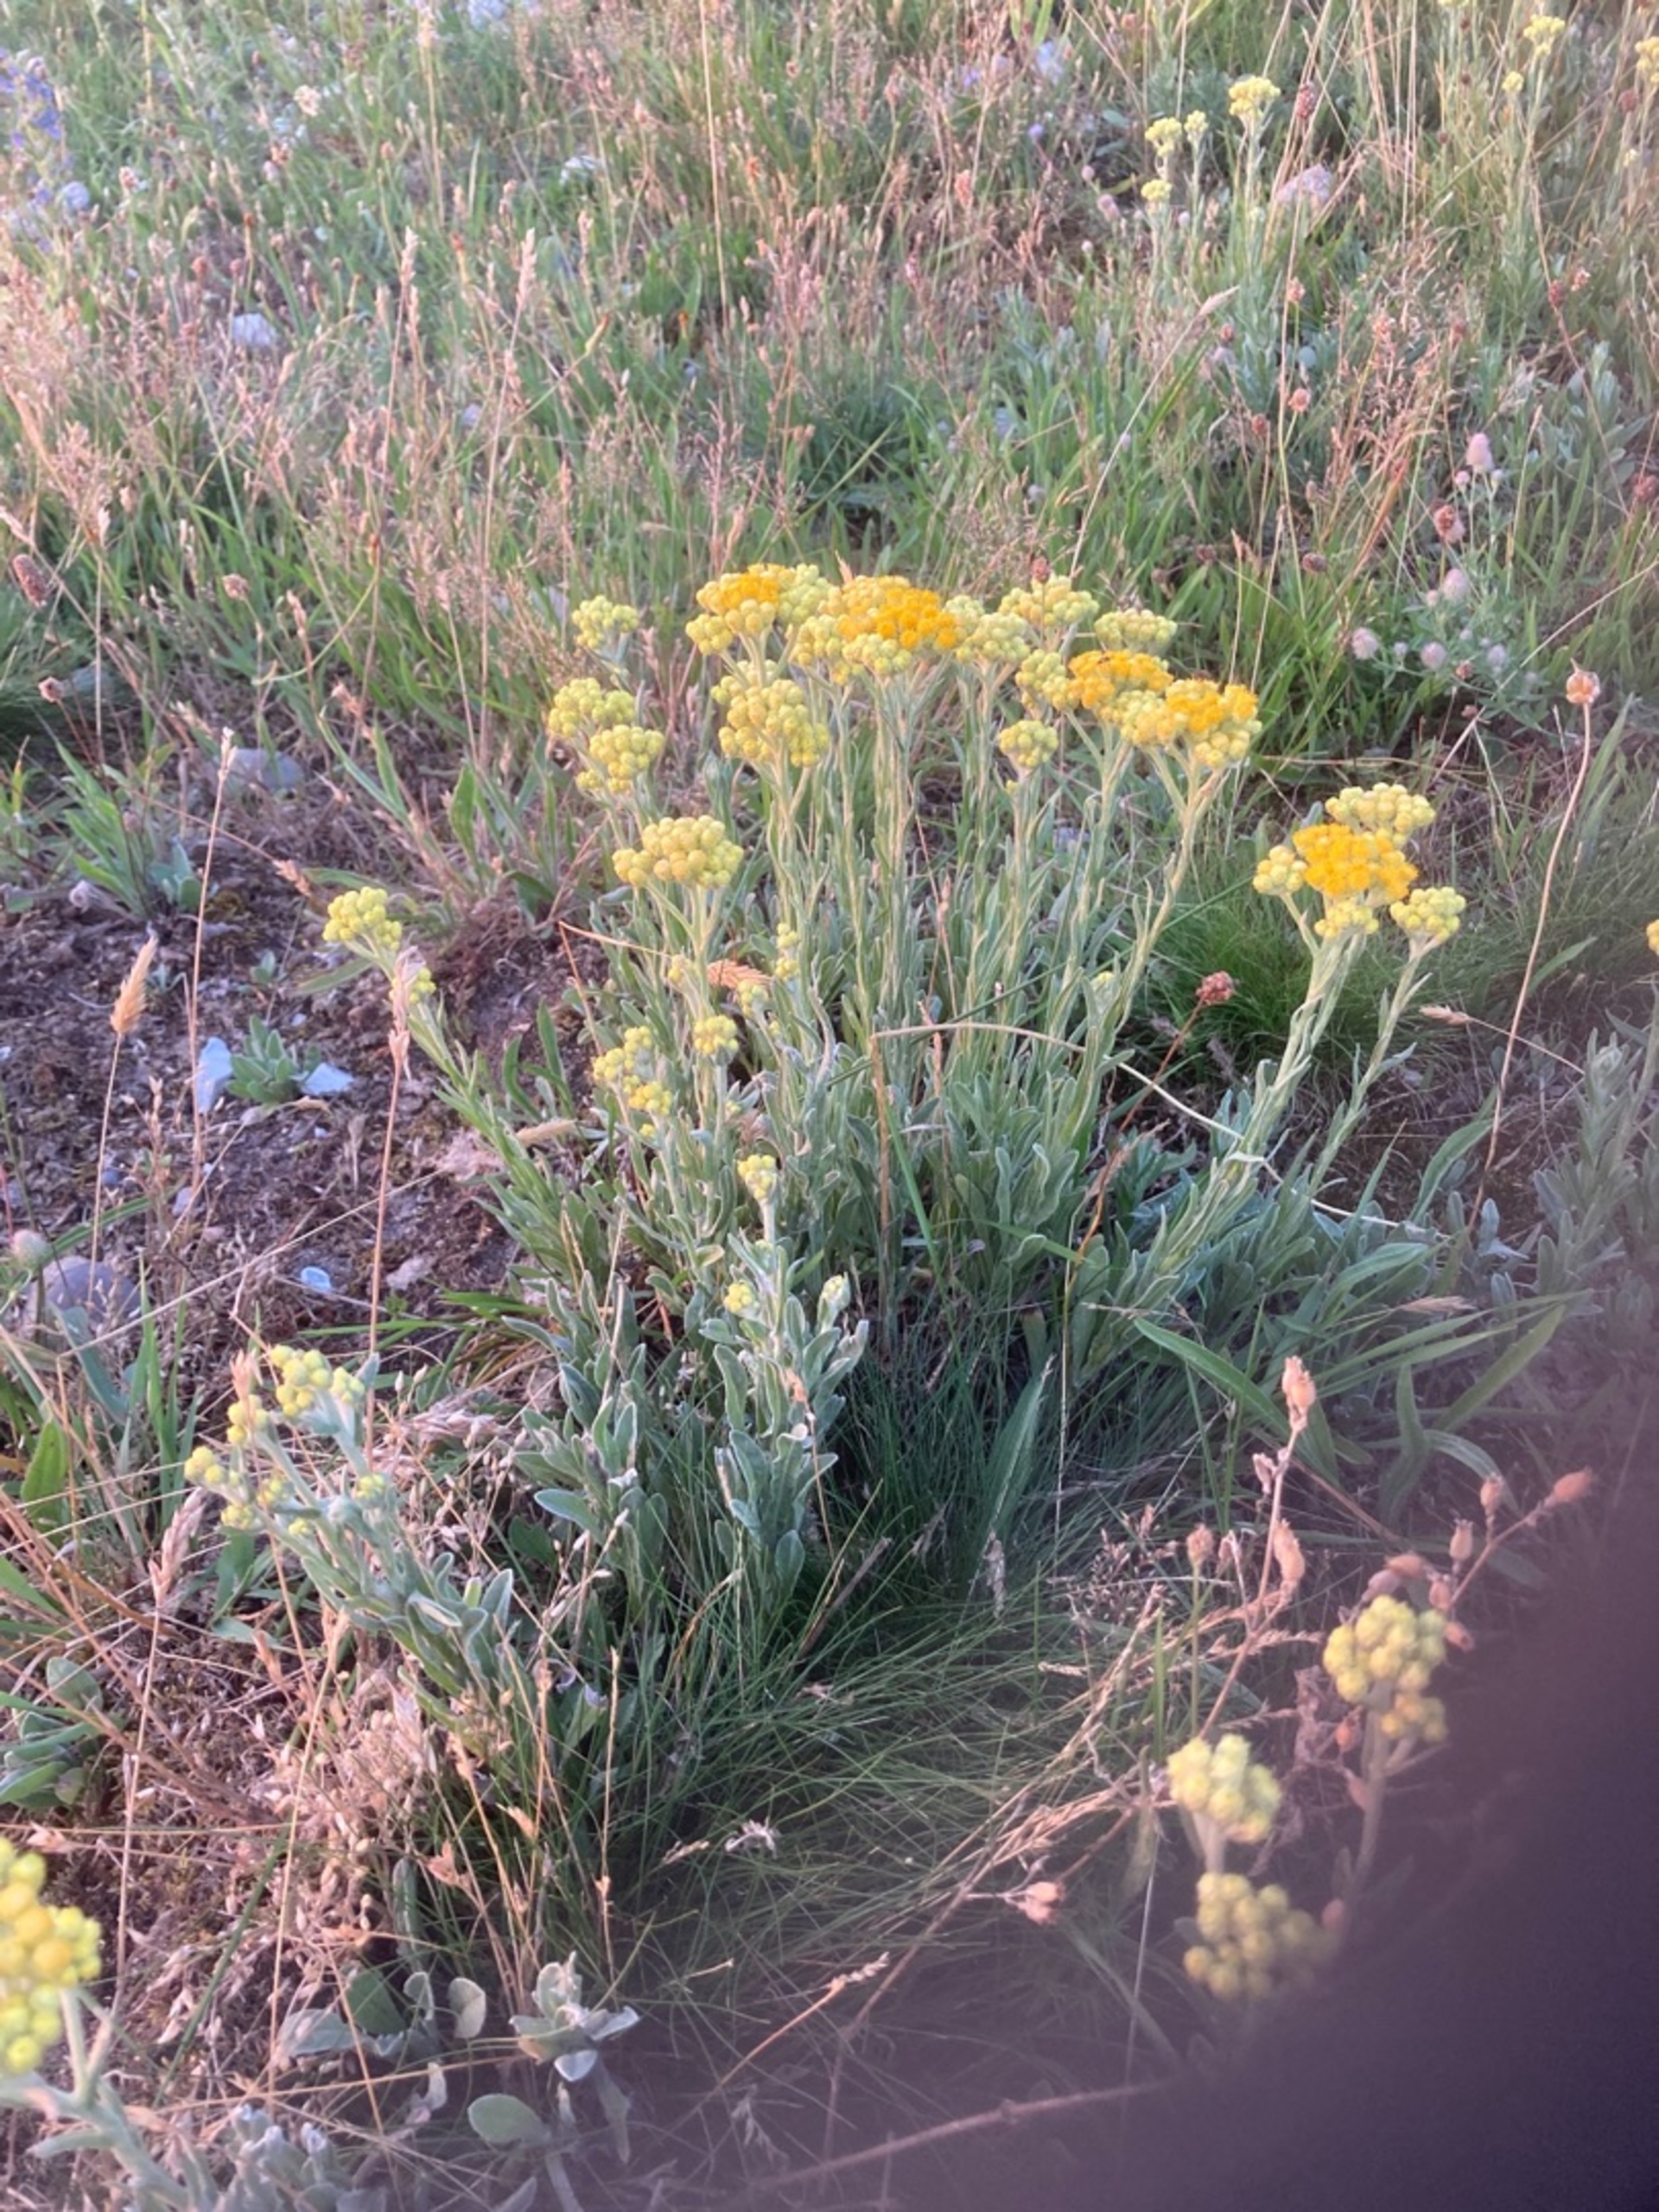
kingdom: Plantae
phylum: Tracheophyta
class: Magnoliopsida
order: Asterales
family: Asteraceae
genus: Helichrysum
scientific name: Helichrysum arenarium
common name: Gul evighedsblomst
